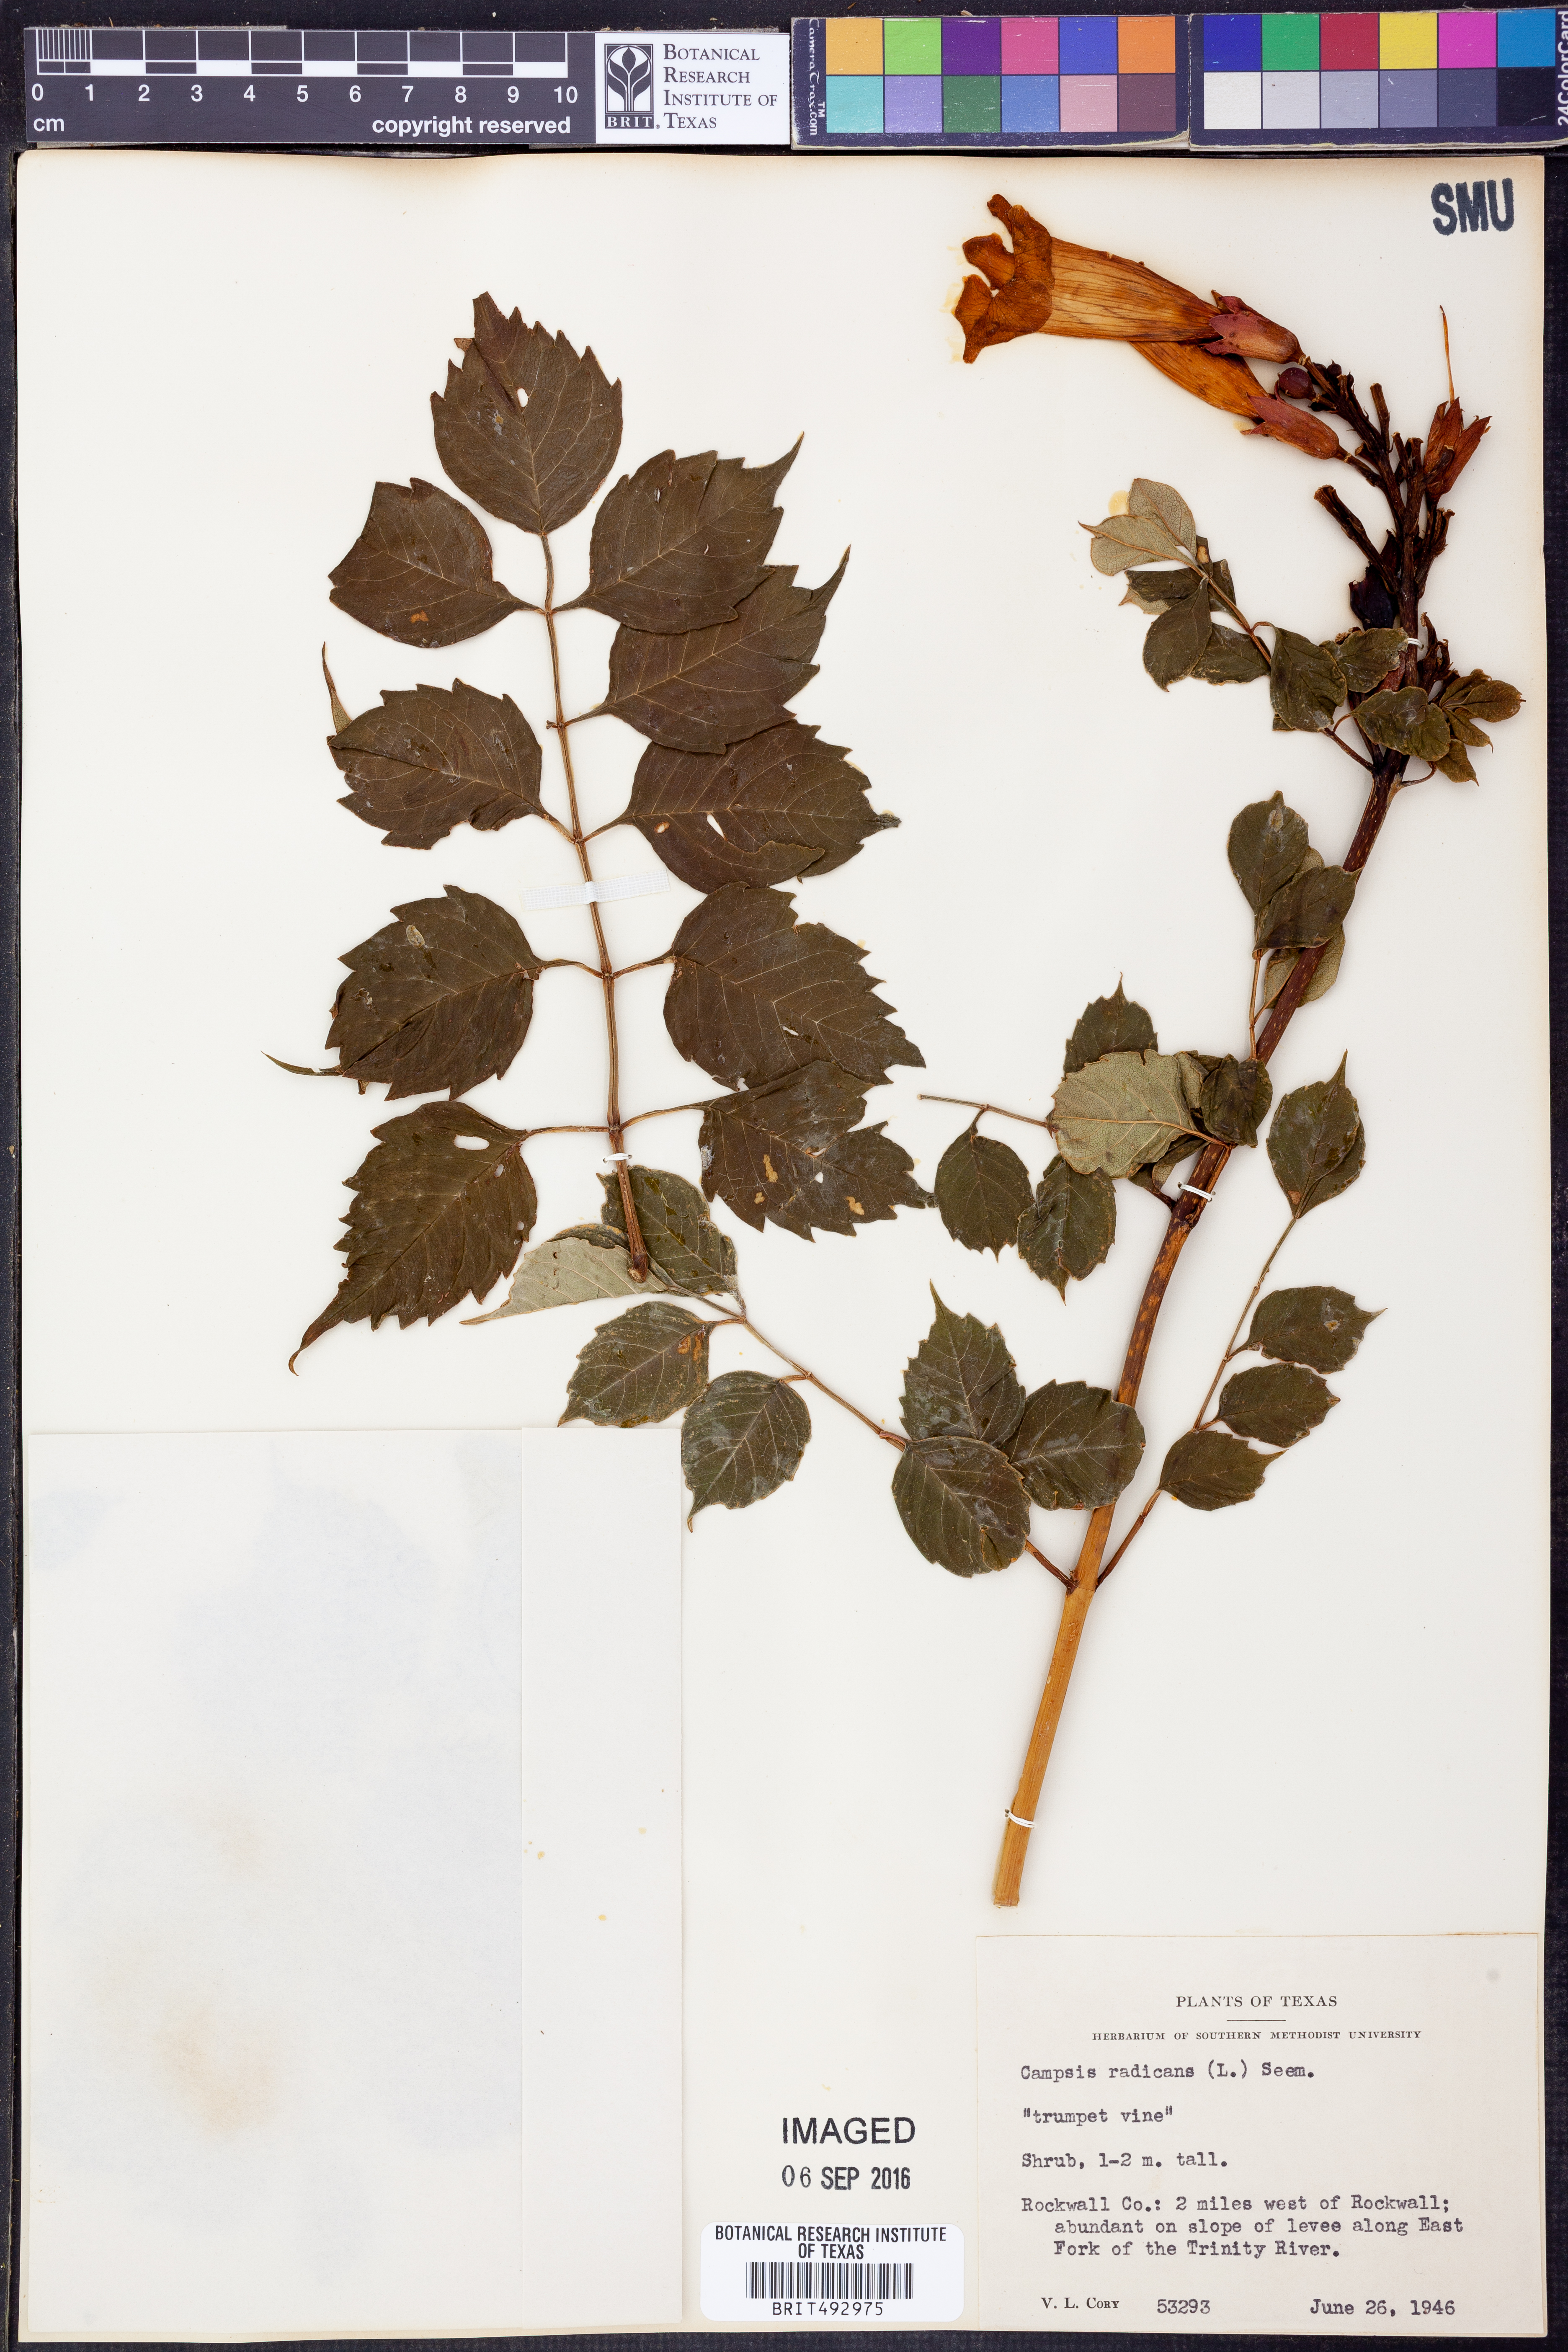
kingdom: Plantae
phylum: Tracheophyta
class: Magnoliopsida
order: Lamiales
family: Bignoniaceae
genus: Campsis
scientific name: Campsis radicans
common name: Trumpet-creeper
